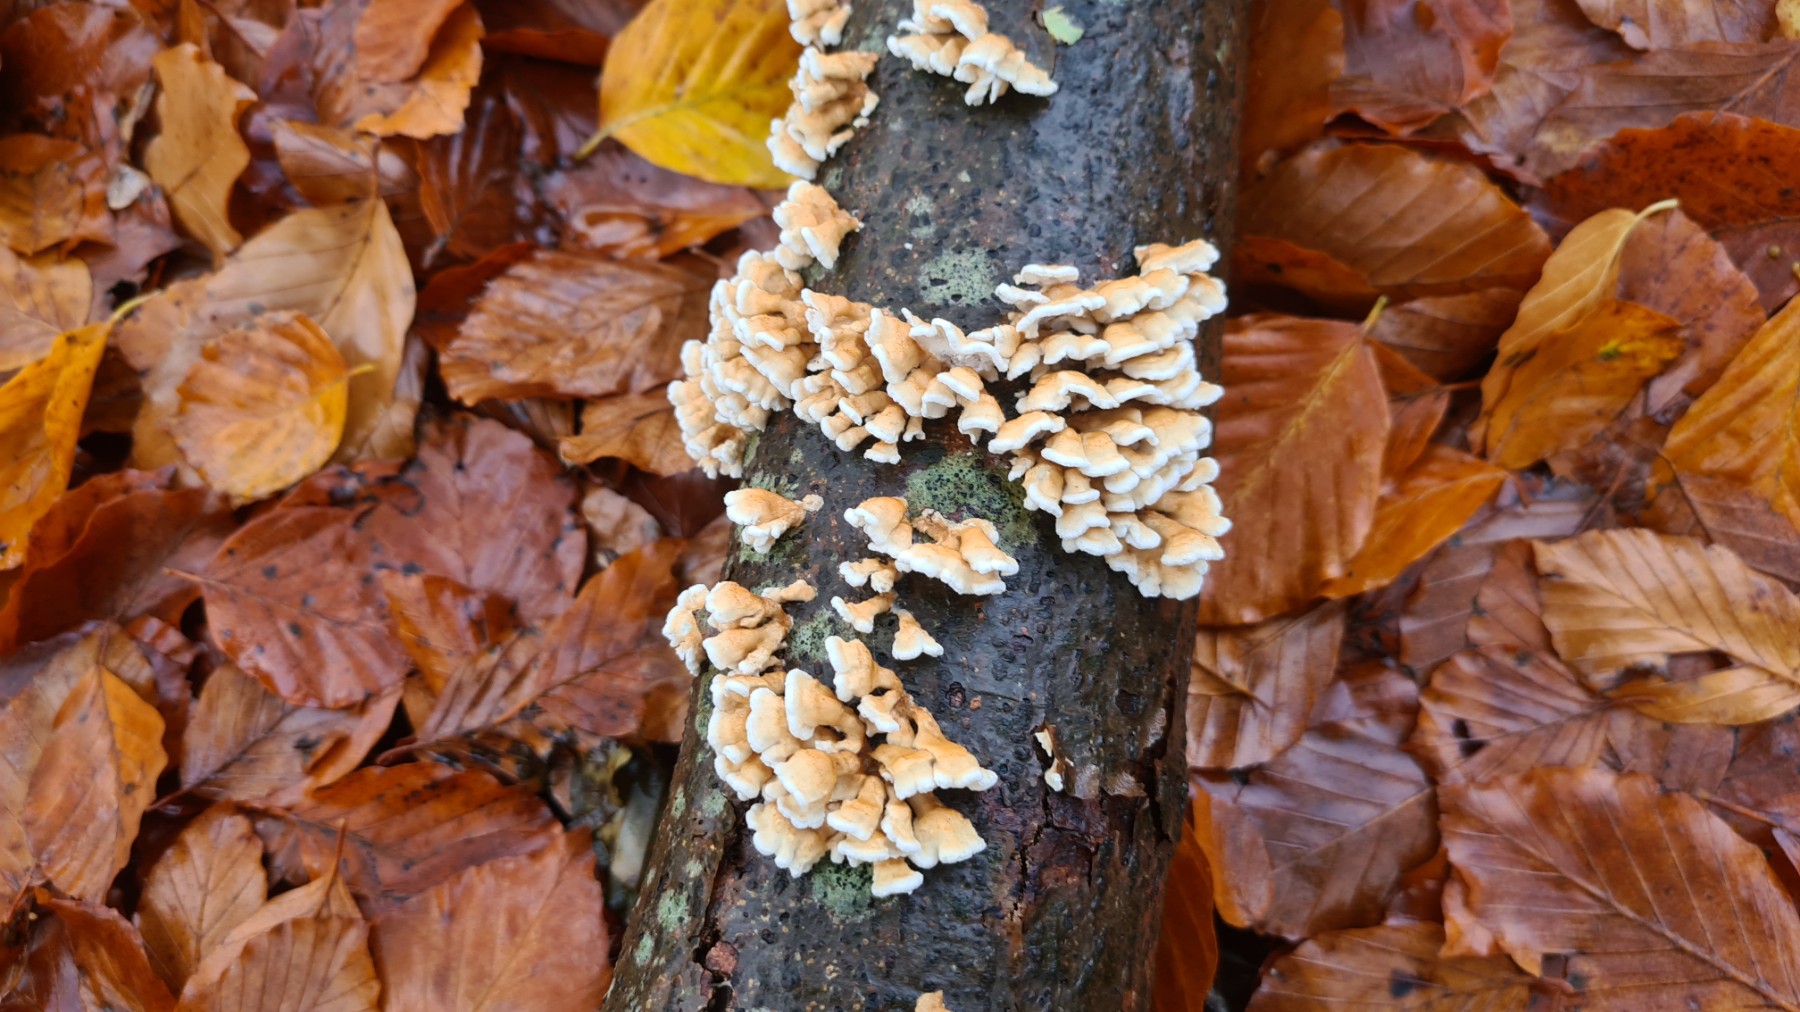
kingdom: Fungi
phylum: Basidiomycota
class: Agaricomycetes
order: Amylocorticiales
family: Amylocorticiaceae
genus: Plicaturopsis
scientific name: Plicaturopsis crispa
